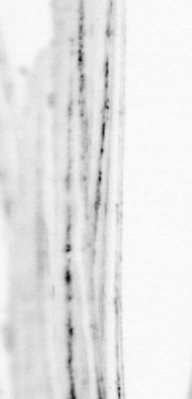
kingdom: Animalia
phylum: Chordata
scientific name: Chordata
